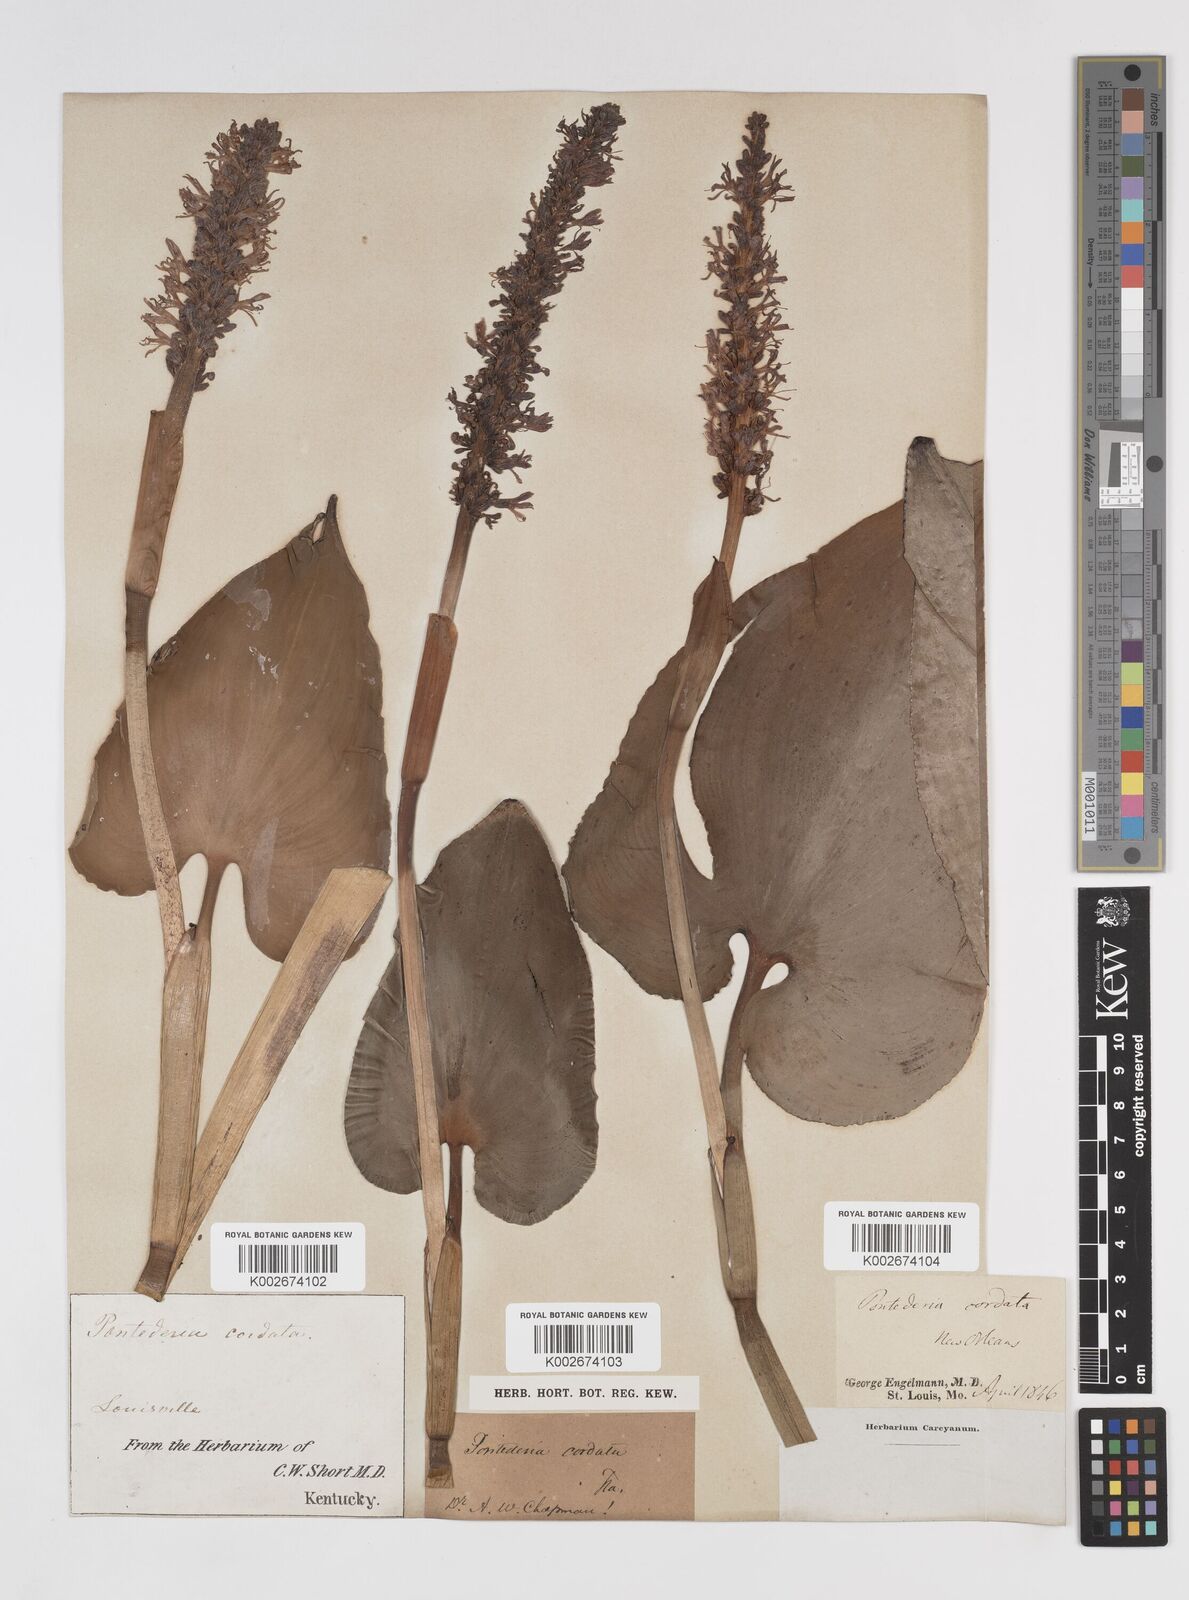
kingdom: Plantae
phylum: Tracheophyta
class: Liliopsida
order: Commelinales
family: Pontederiaceae
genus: Pontederia
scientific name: Pontederia cordata
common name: Pickerelweed
